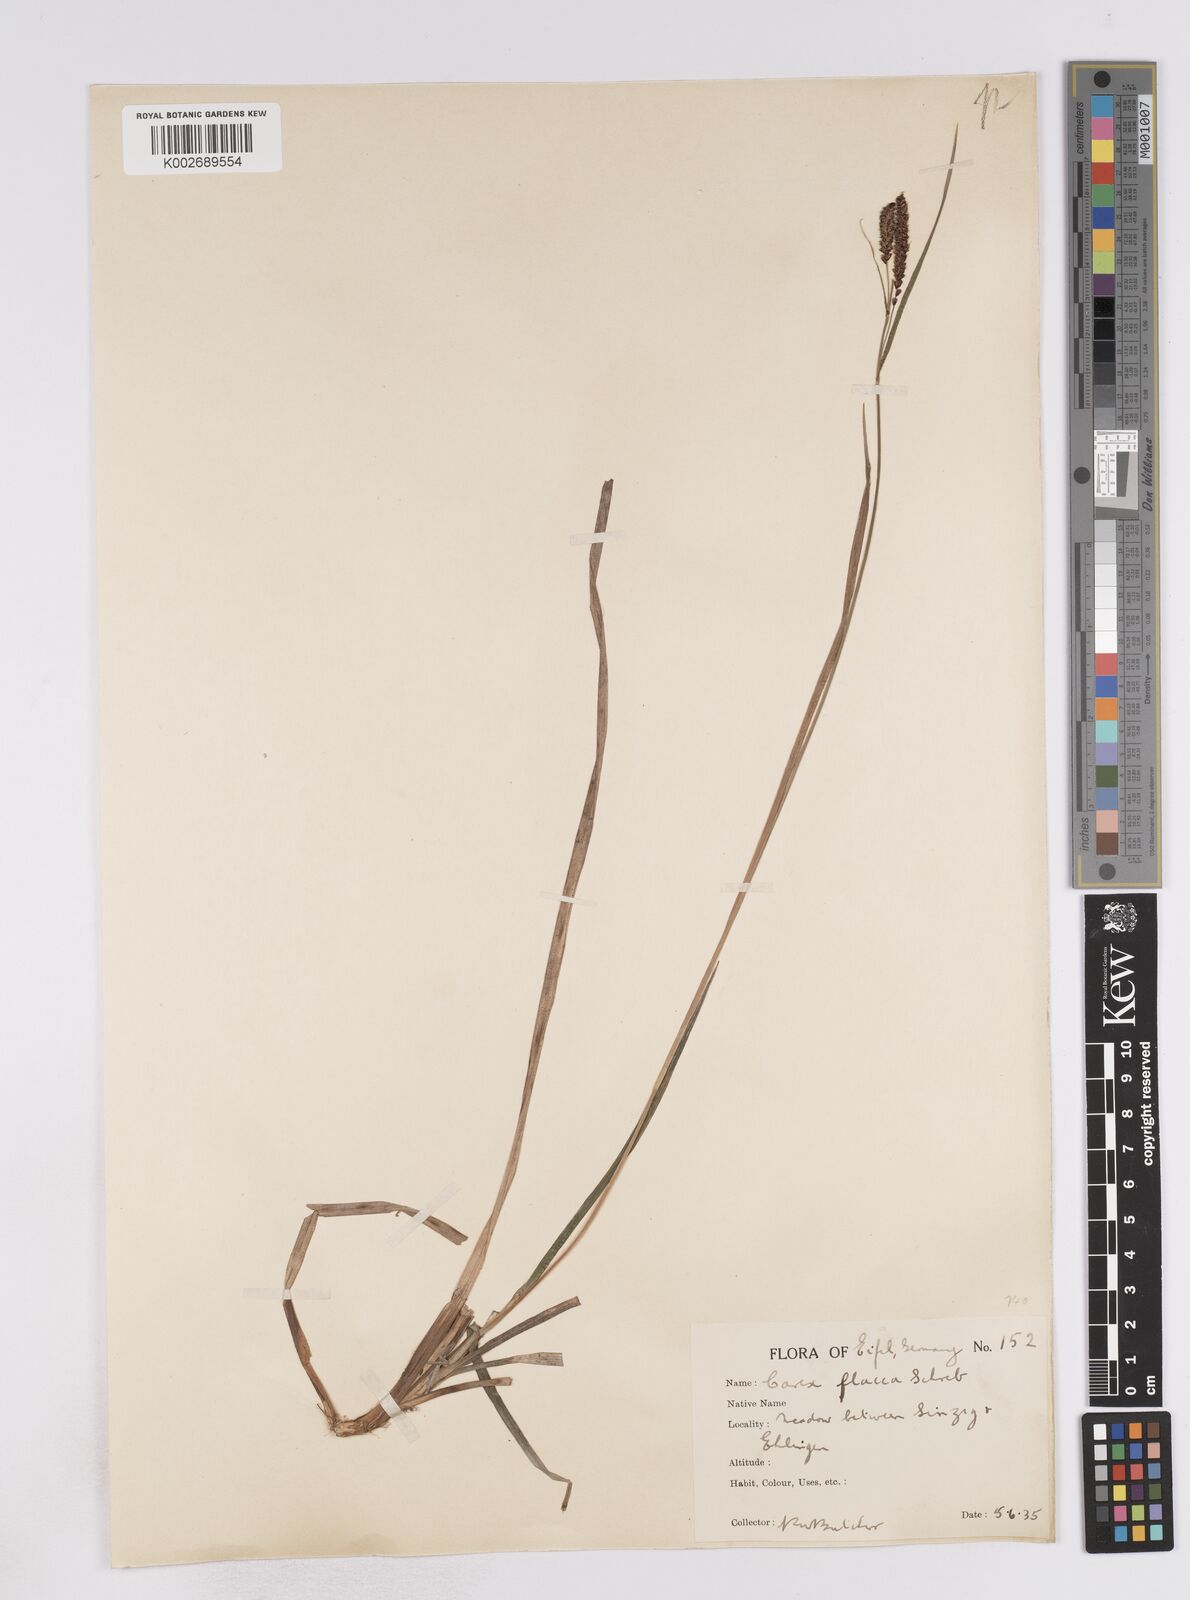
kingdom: Plantae
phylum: Tracheophyta
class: Liliopsida
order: Poales
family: Cyperaceae
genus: Carex
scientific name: Carex flacca
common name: Glaucous sedge
